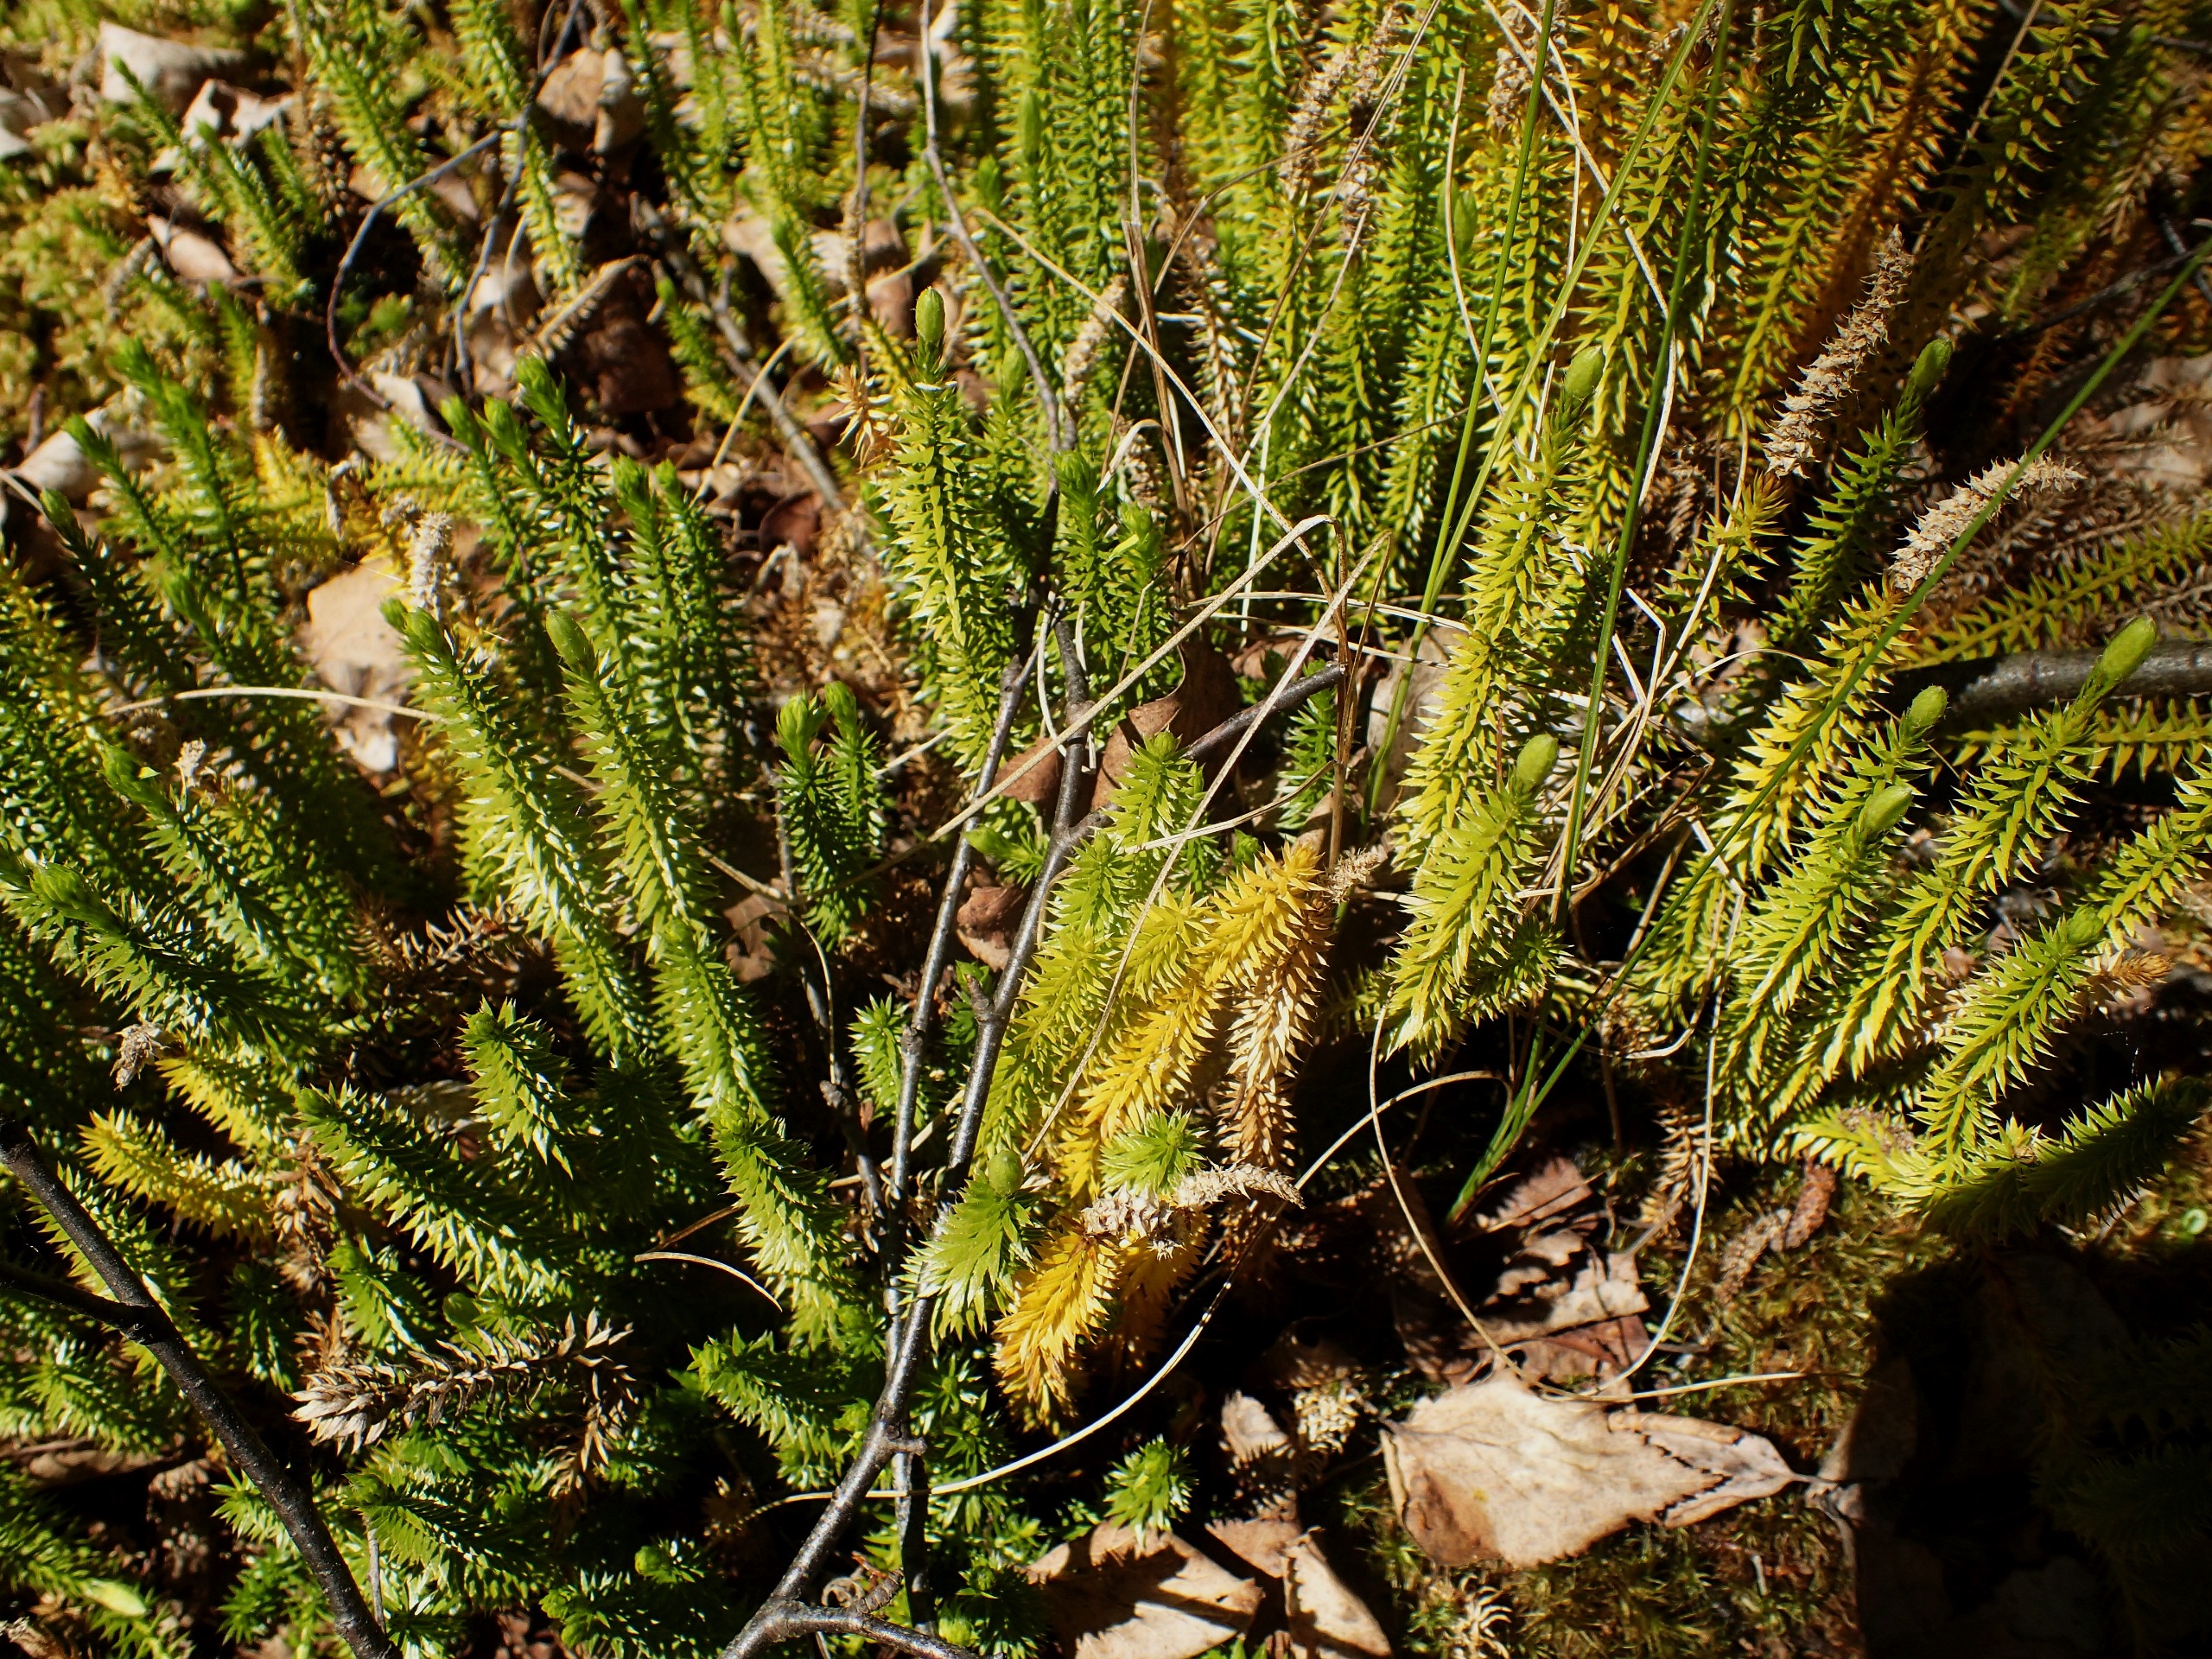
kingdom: Plantae
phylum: Tracheophyta
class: Lycopodiopsida
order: Lycopodiales
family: Lycopodiaceae
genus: Spinulum
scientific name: Spinulum annotinum
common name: Femradet ulvefod
